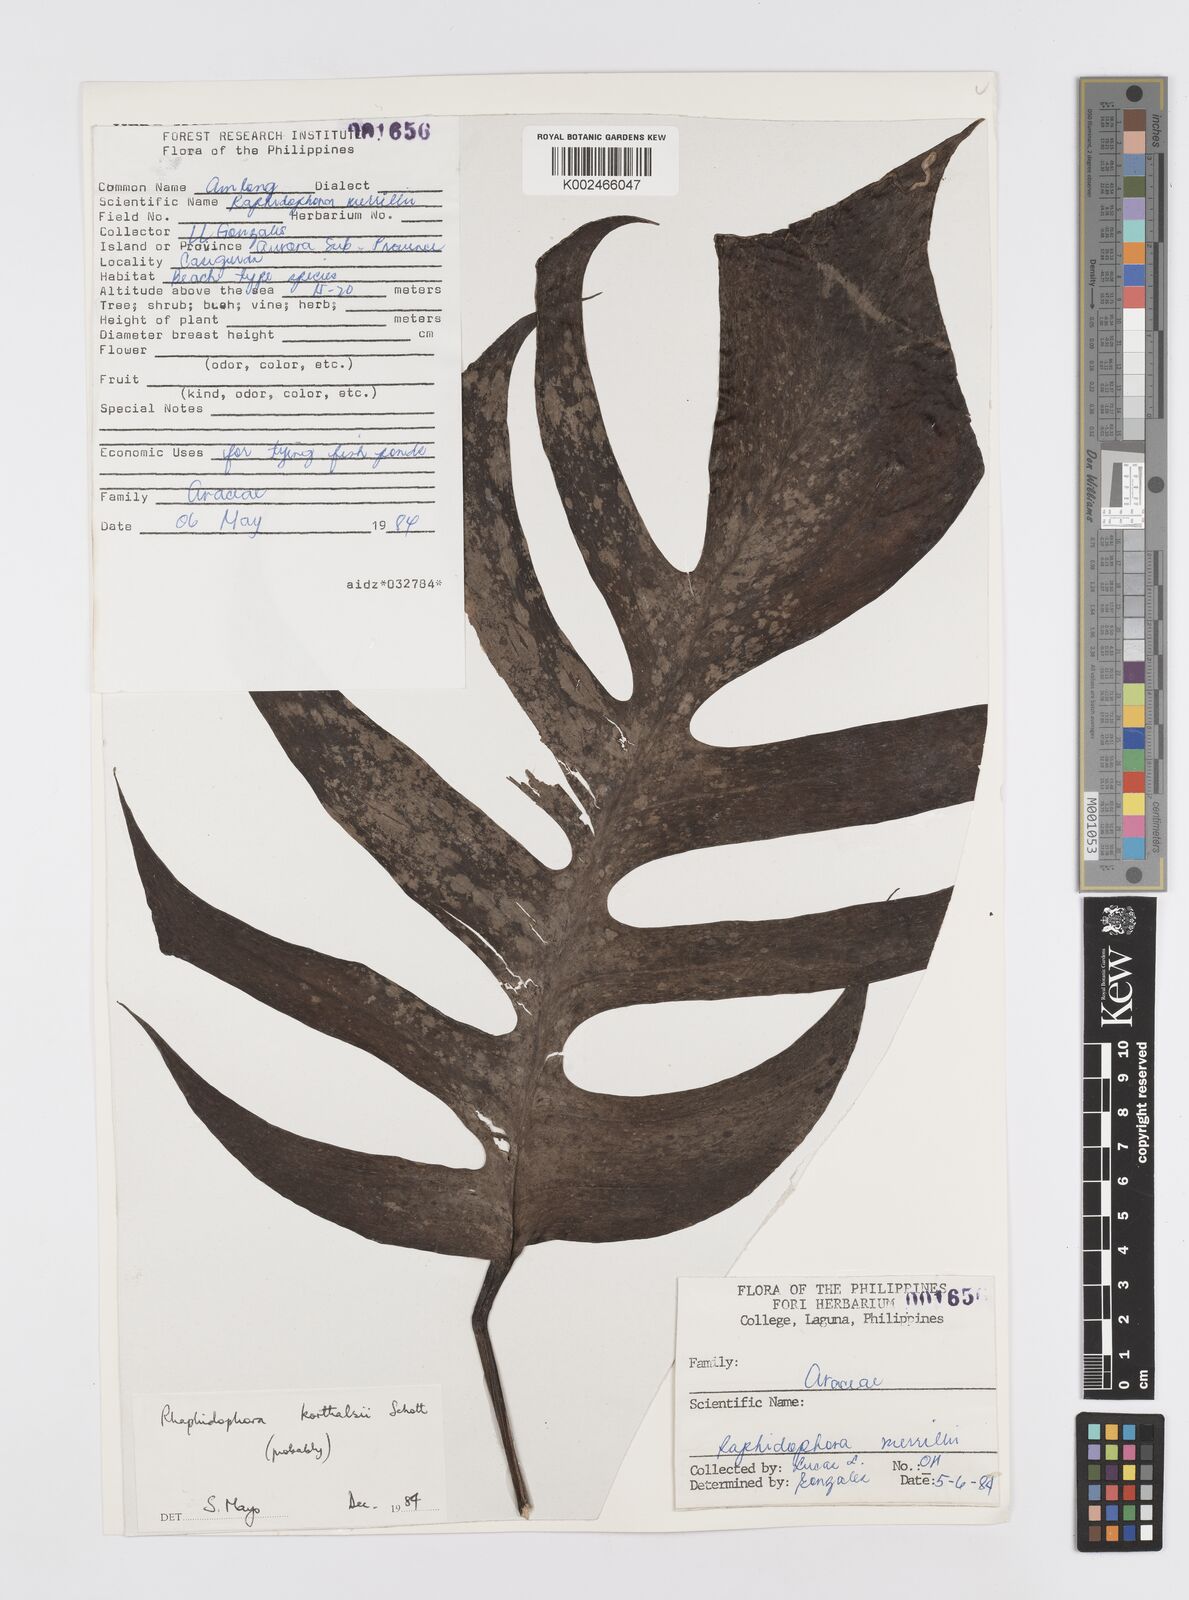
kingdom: Plantae
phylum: Tracheophyta
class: Liliopsida
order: Alismatales
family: Araceae
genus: Rhaphidophora
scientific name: Rhaphidophora korthalsii
